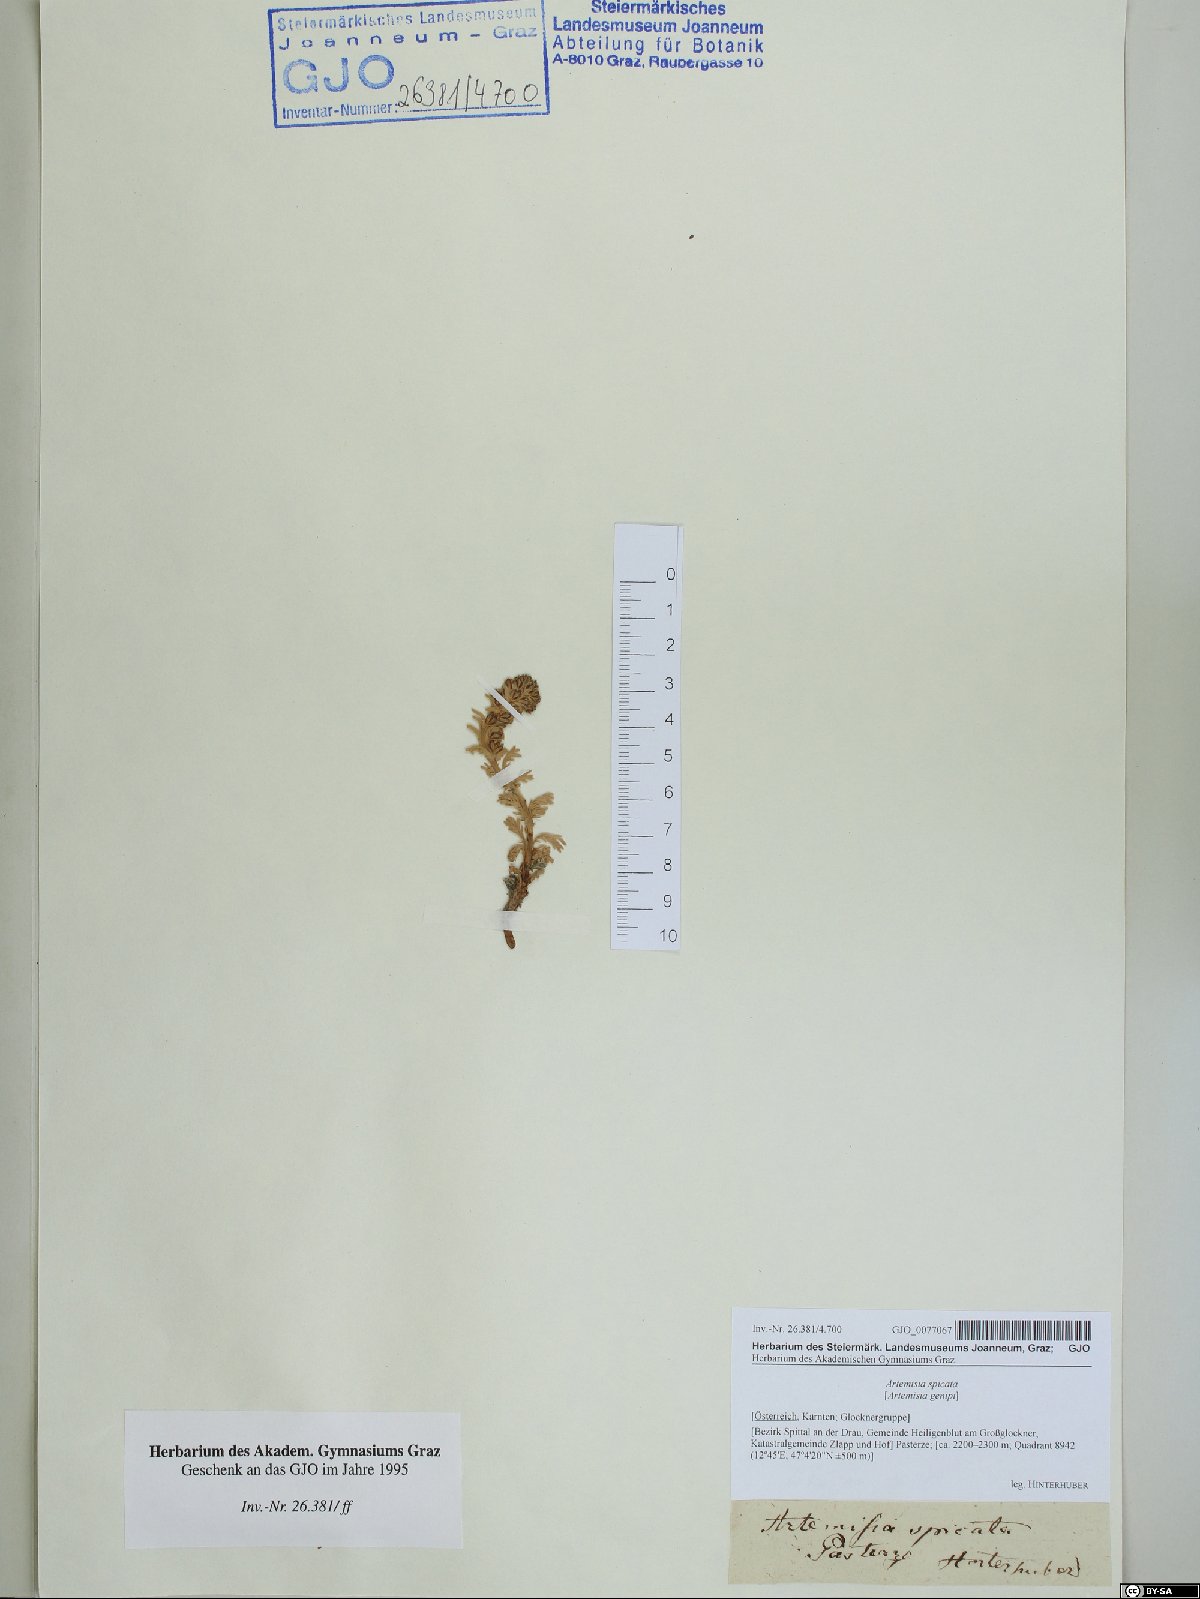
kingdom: Plantae
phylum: Tracheophyta
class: Magnoliopsida
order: Asterales
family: Asteraceae
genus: Artemisia
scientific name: Artemisia genipi
